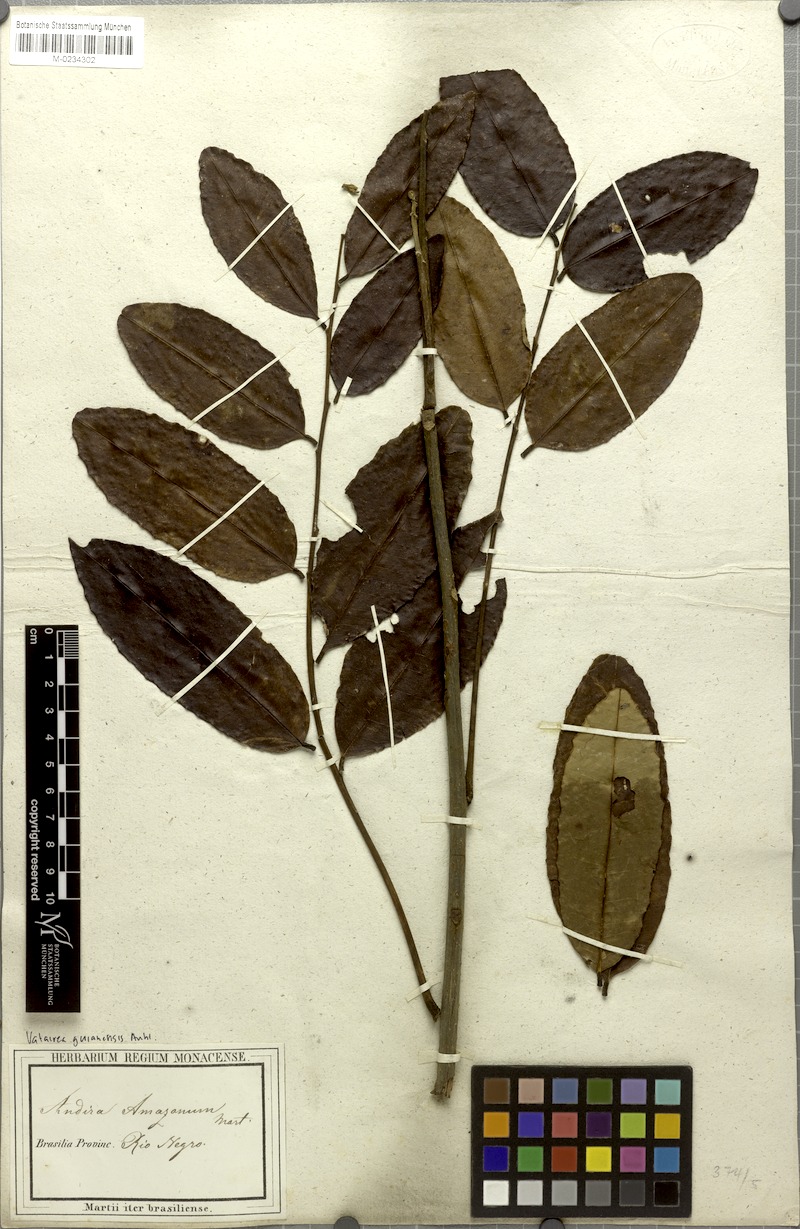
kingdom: Plantae
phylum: Tracheophyta
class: Magnoliopsida
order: Fabales
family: Fabaceae
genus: Vatairea
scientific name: Vatairea guianensis
